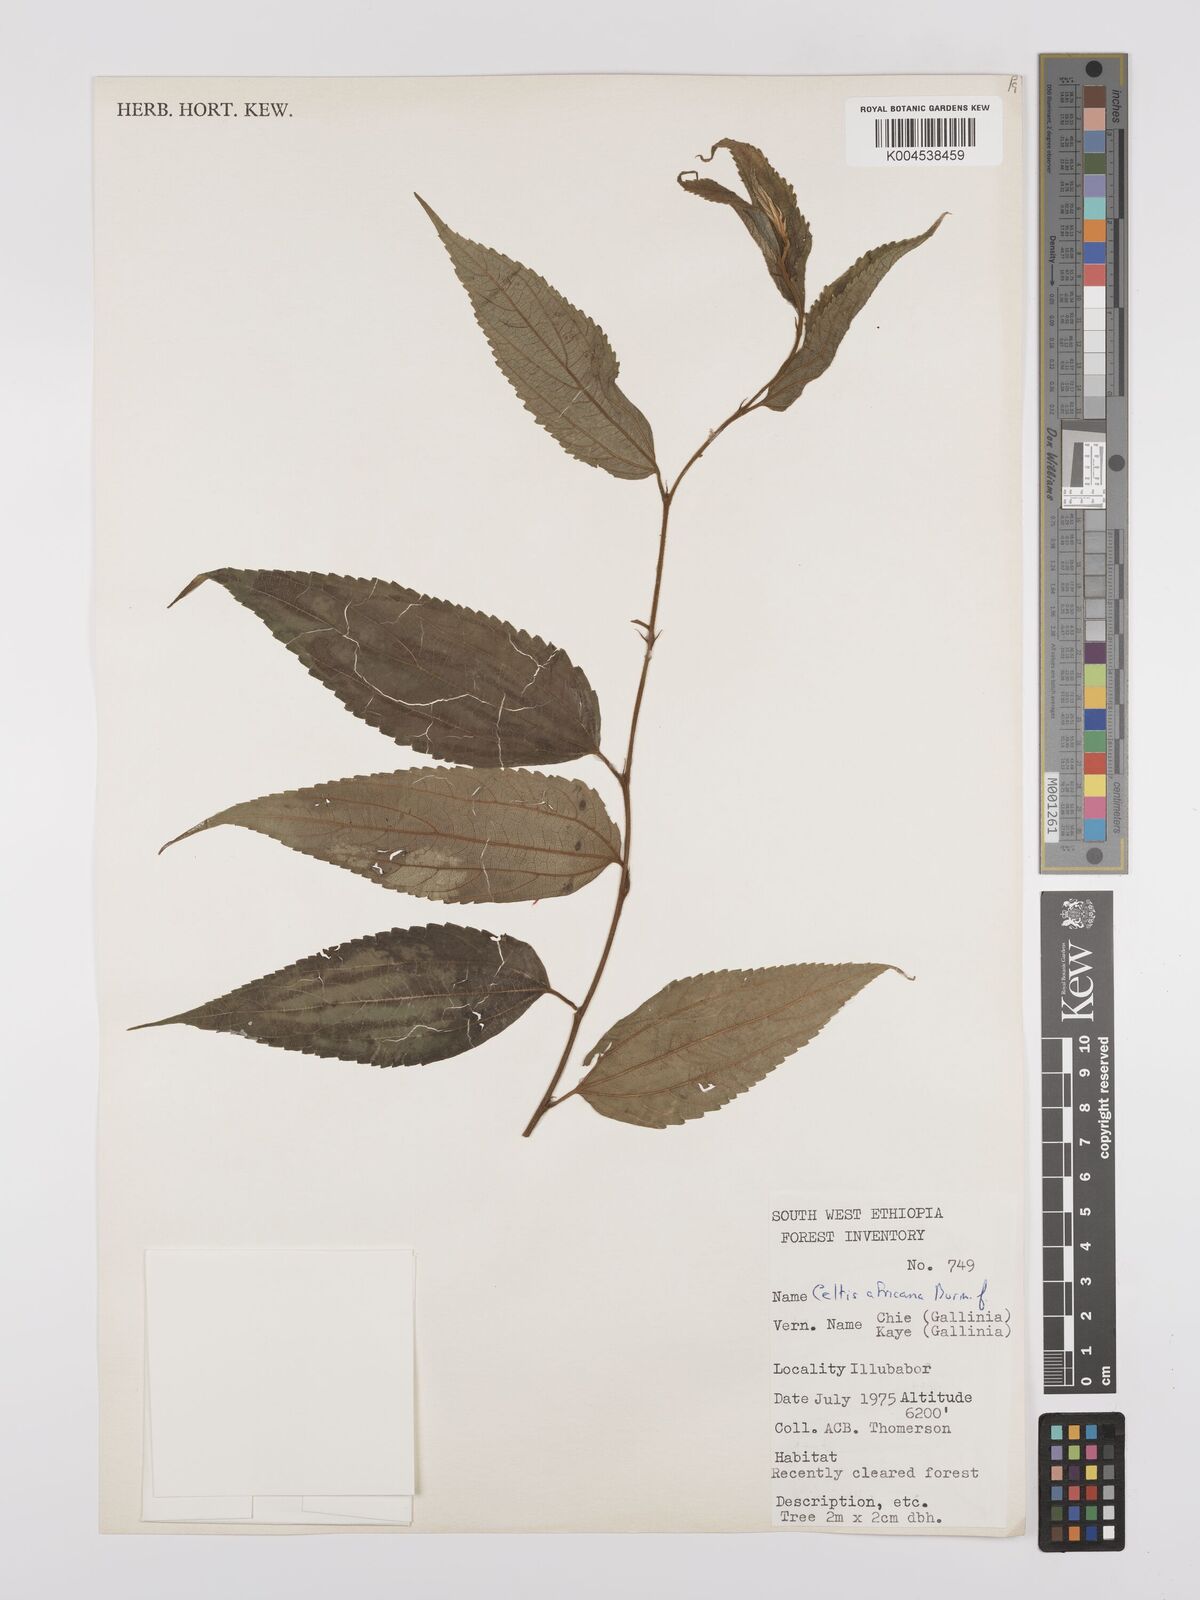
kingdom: Plantae
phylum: Tracheophyta
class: Magnoliopsida
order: Rosales
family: Cannabaceae
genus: Celtis
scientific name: Celtis africana
